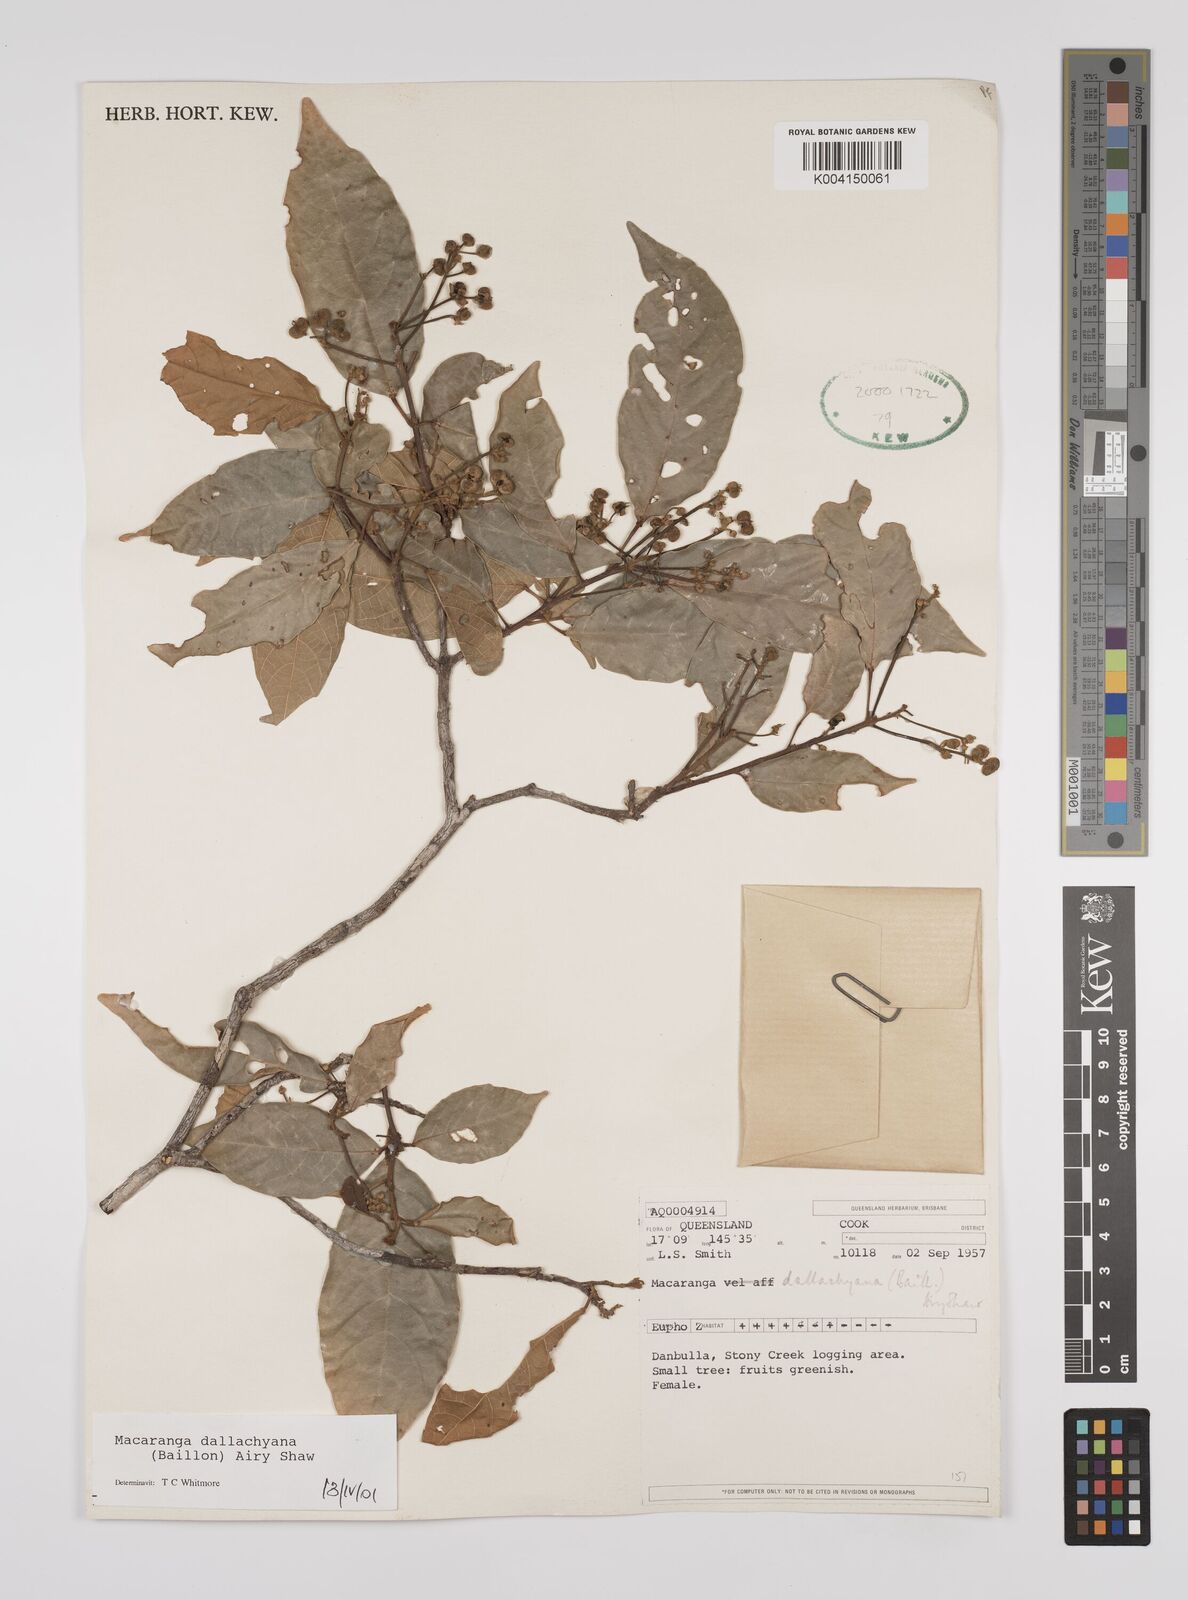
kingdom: Plantae
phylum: Tracheophyta
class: Magnoliopsida
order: Malpighiales
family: Euphorbiaceae
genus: Macaranga
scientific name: Macaranga dallachyana
